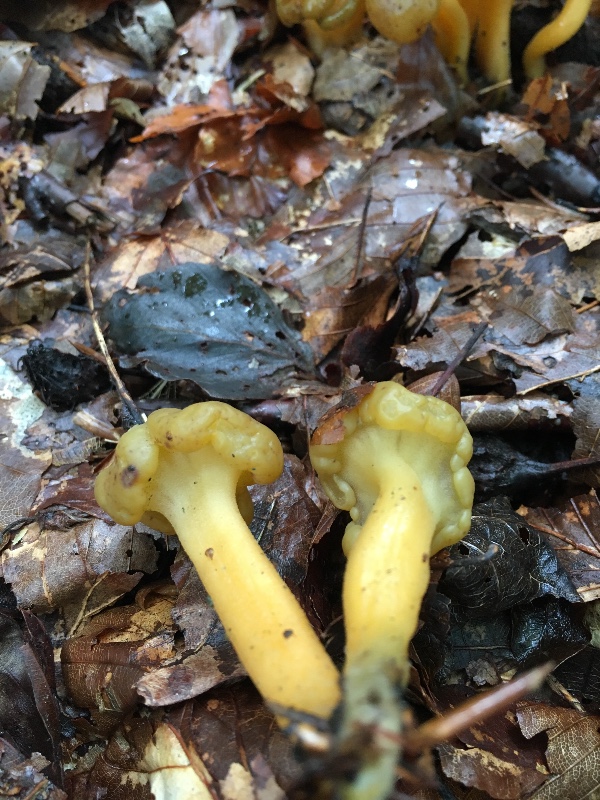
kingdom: Fungi
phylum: Ascomycota
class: Leotiomycetes
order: Leotiales
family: Leotiaceae
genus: Leotia
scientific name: Leotia lubrica
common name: ravsvamp
